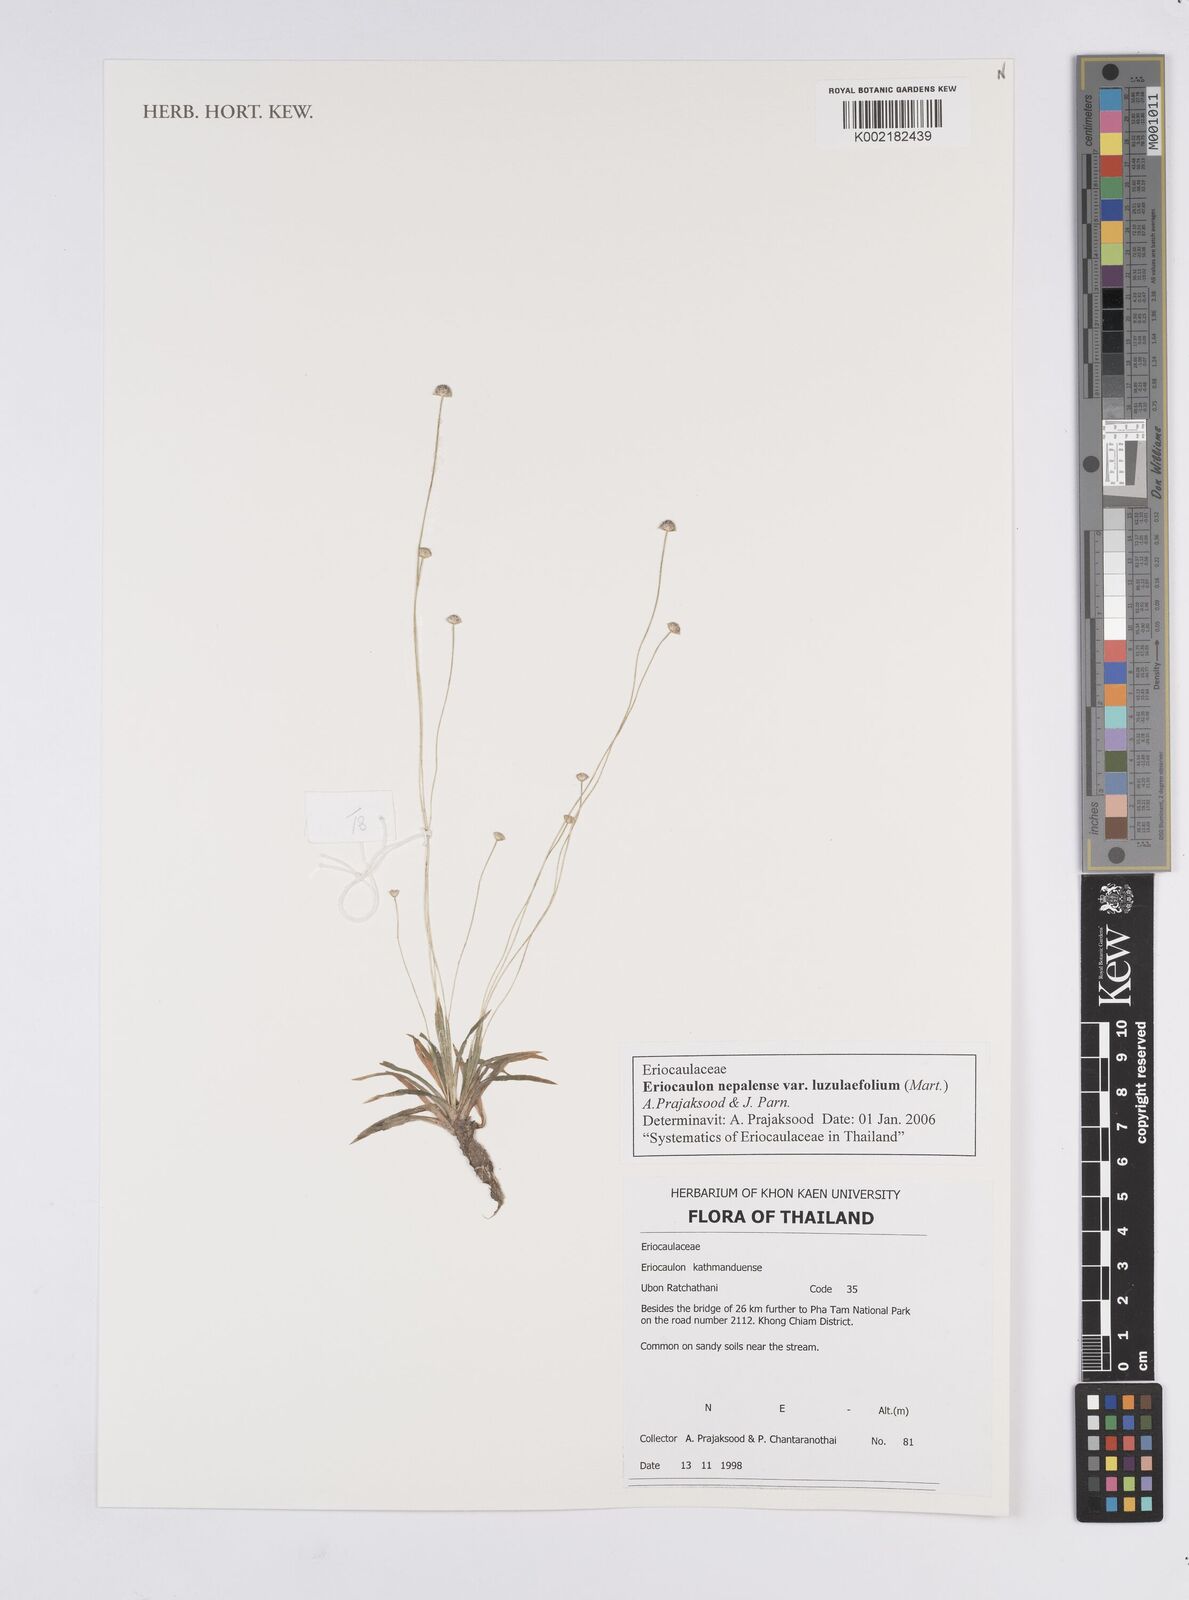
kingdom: Plantae
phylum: Tracheophyta
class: Liliopsida
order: Poales
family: Eriocaulaceae
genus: Eriocaulon
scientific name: Eriocaulon nepalense
